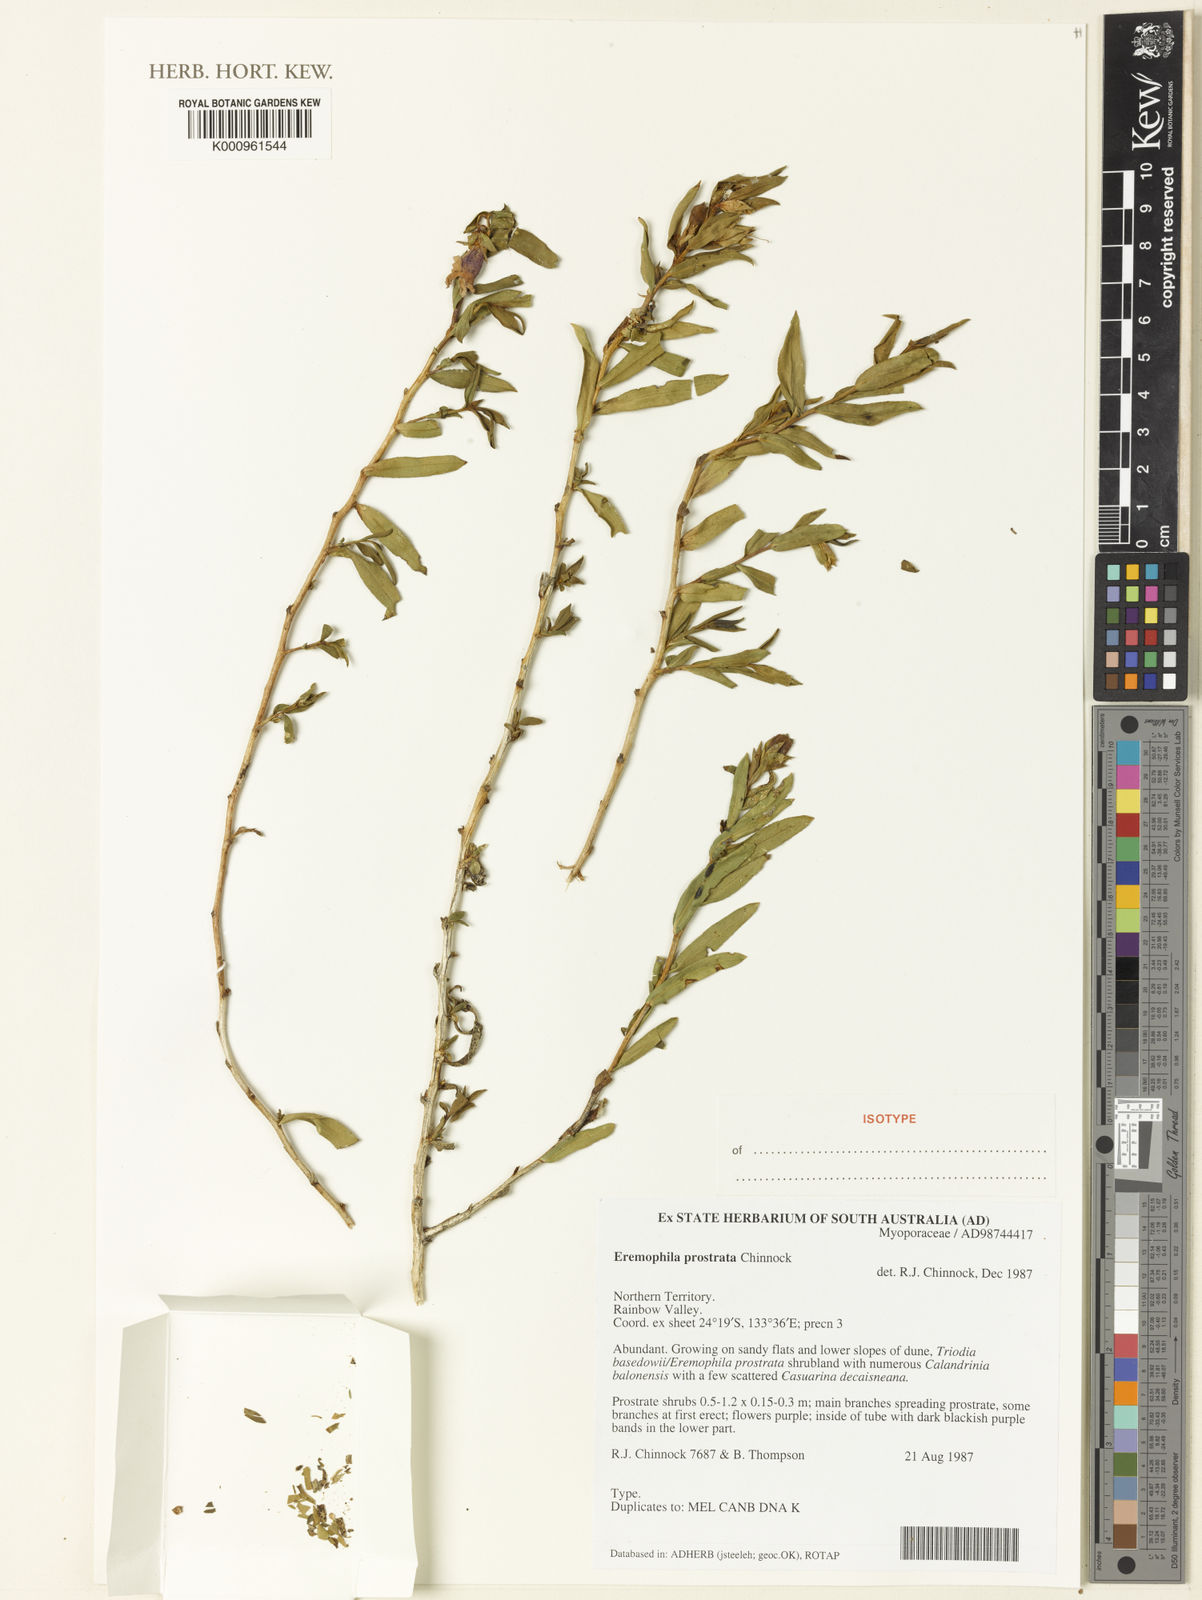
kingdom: Plantae
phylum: Tracheophyta
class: Magnoliopsida
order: Lamiales
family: Scrophulariaceae
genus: Eremophila
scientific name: Eremophila prostrata
